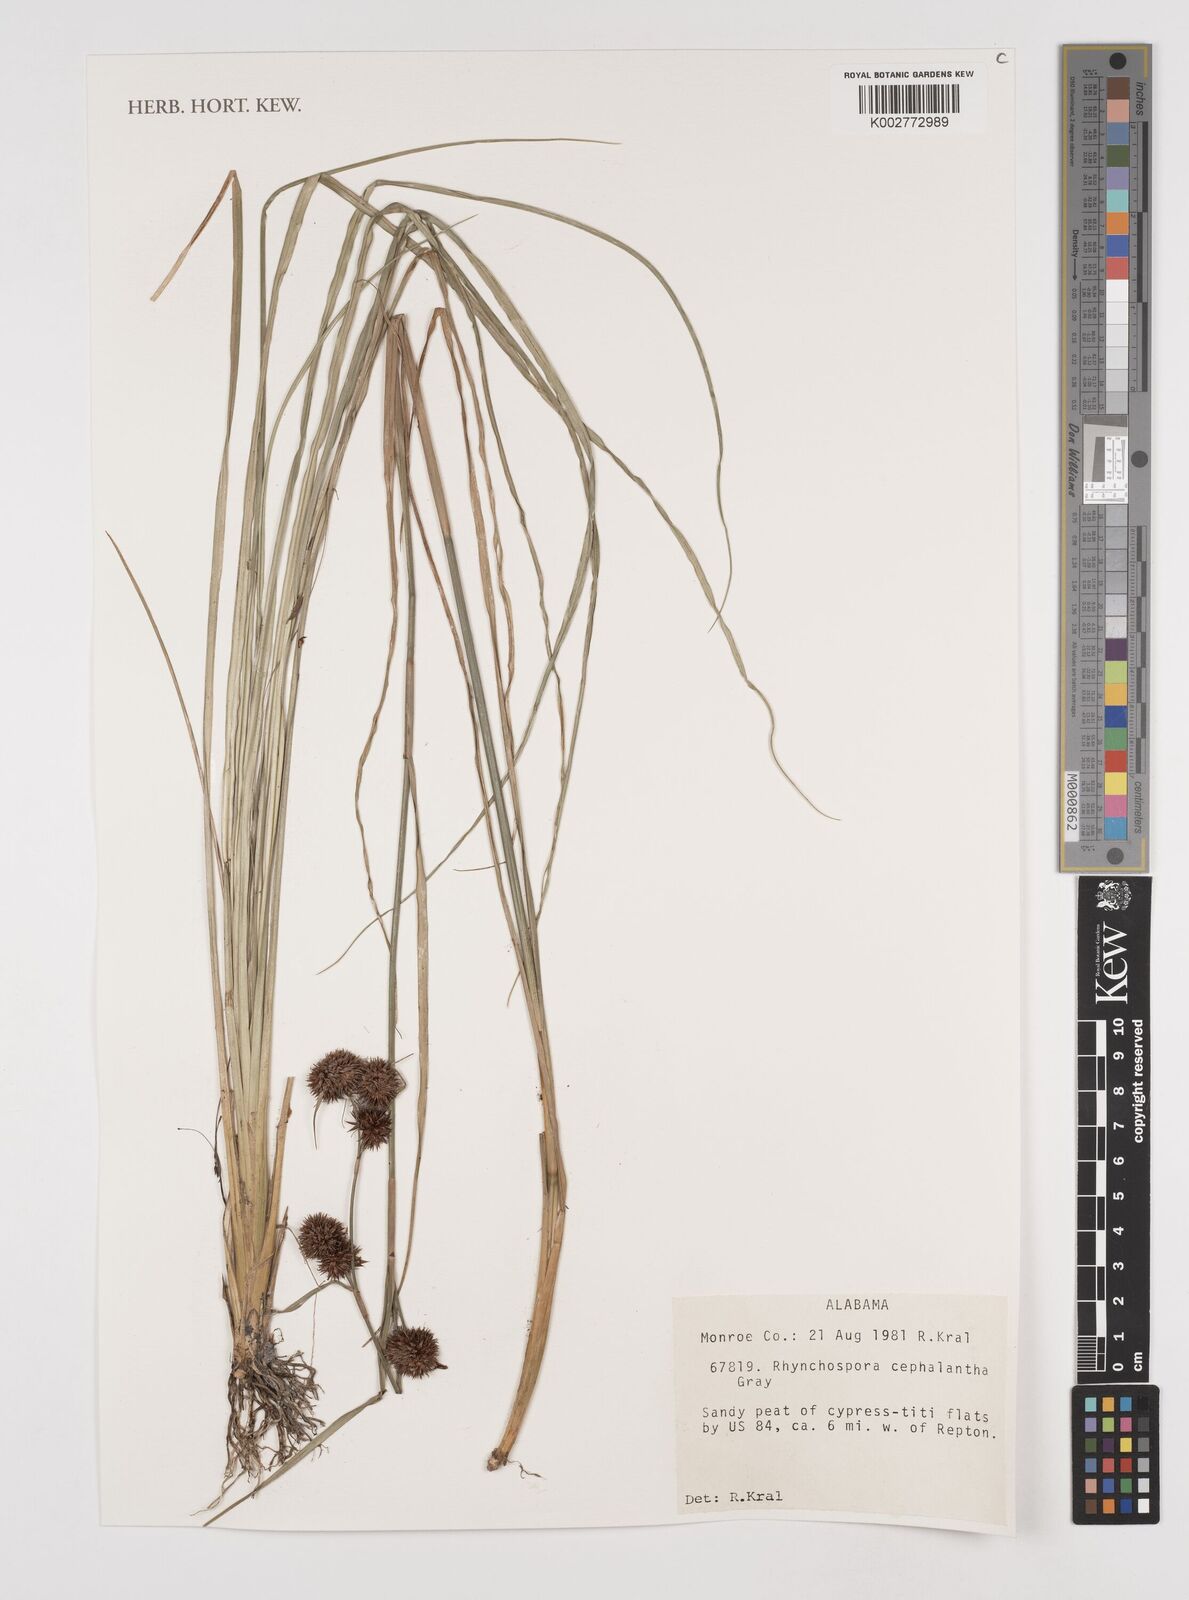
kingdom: Plantae
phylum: Tracheophyta
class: Liliopsida
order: Poales
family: Cyperaceae
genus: Rhynchospora
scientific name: Rhynchospora cephalantha
